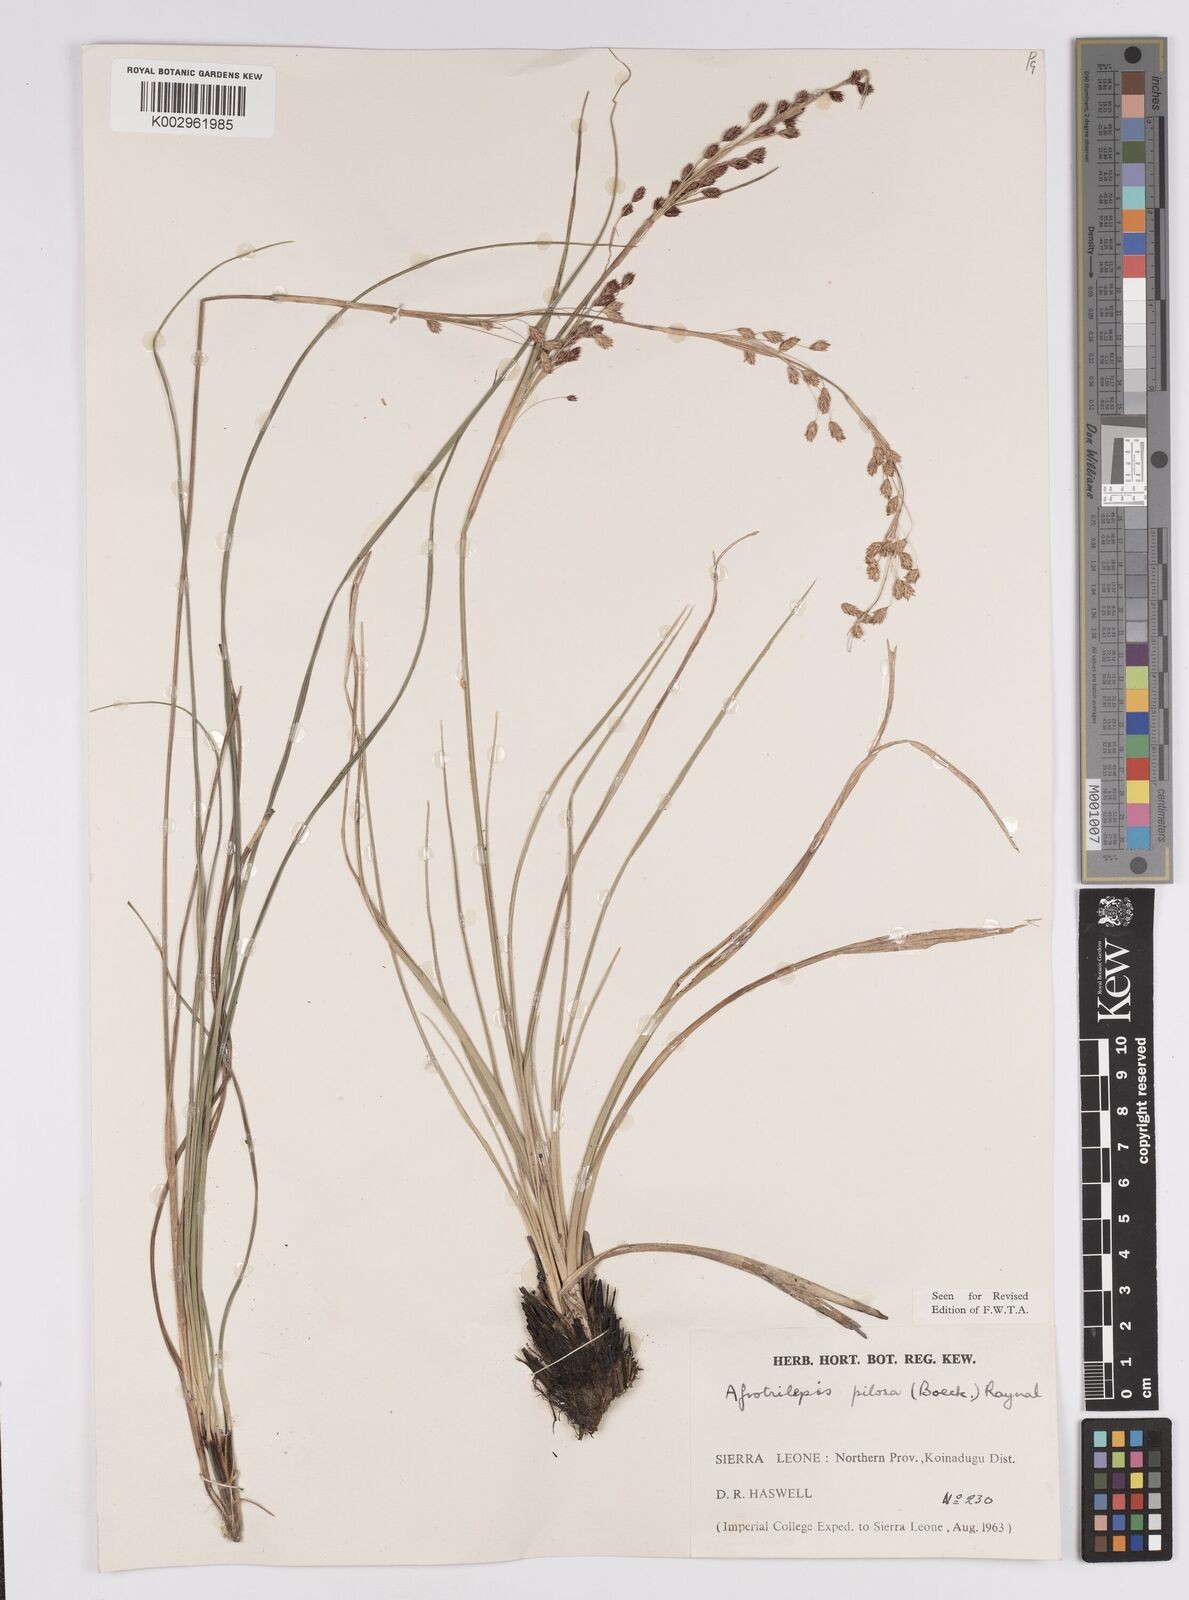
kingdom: Plantae
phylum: Tracheophyta
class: Liliopsida
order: Poales
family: Cyperaceae
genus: Afrotrilepis
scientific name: Afrotrilepis pilosa
